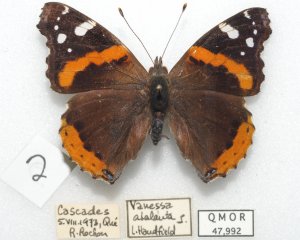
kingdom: Animalia
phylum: Arthropoda
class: Insecta
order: Lepidoptera
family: Nymphalidae
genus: Vanessa
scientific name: Vanessa atalanta
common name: Red Admiral
